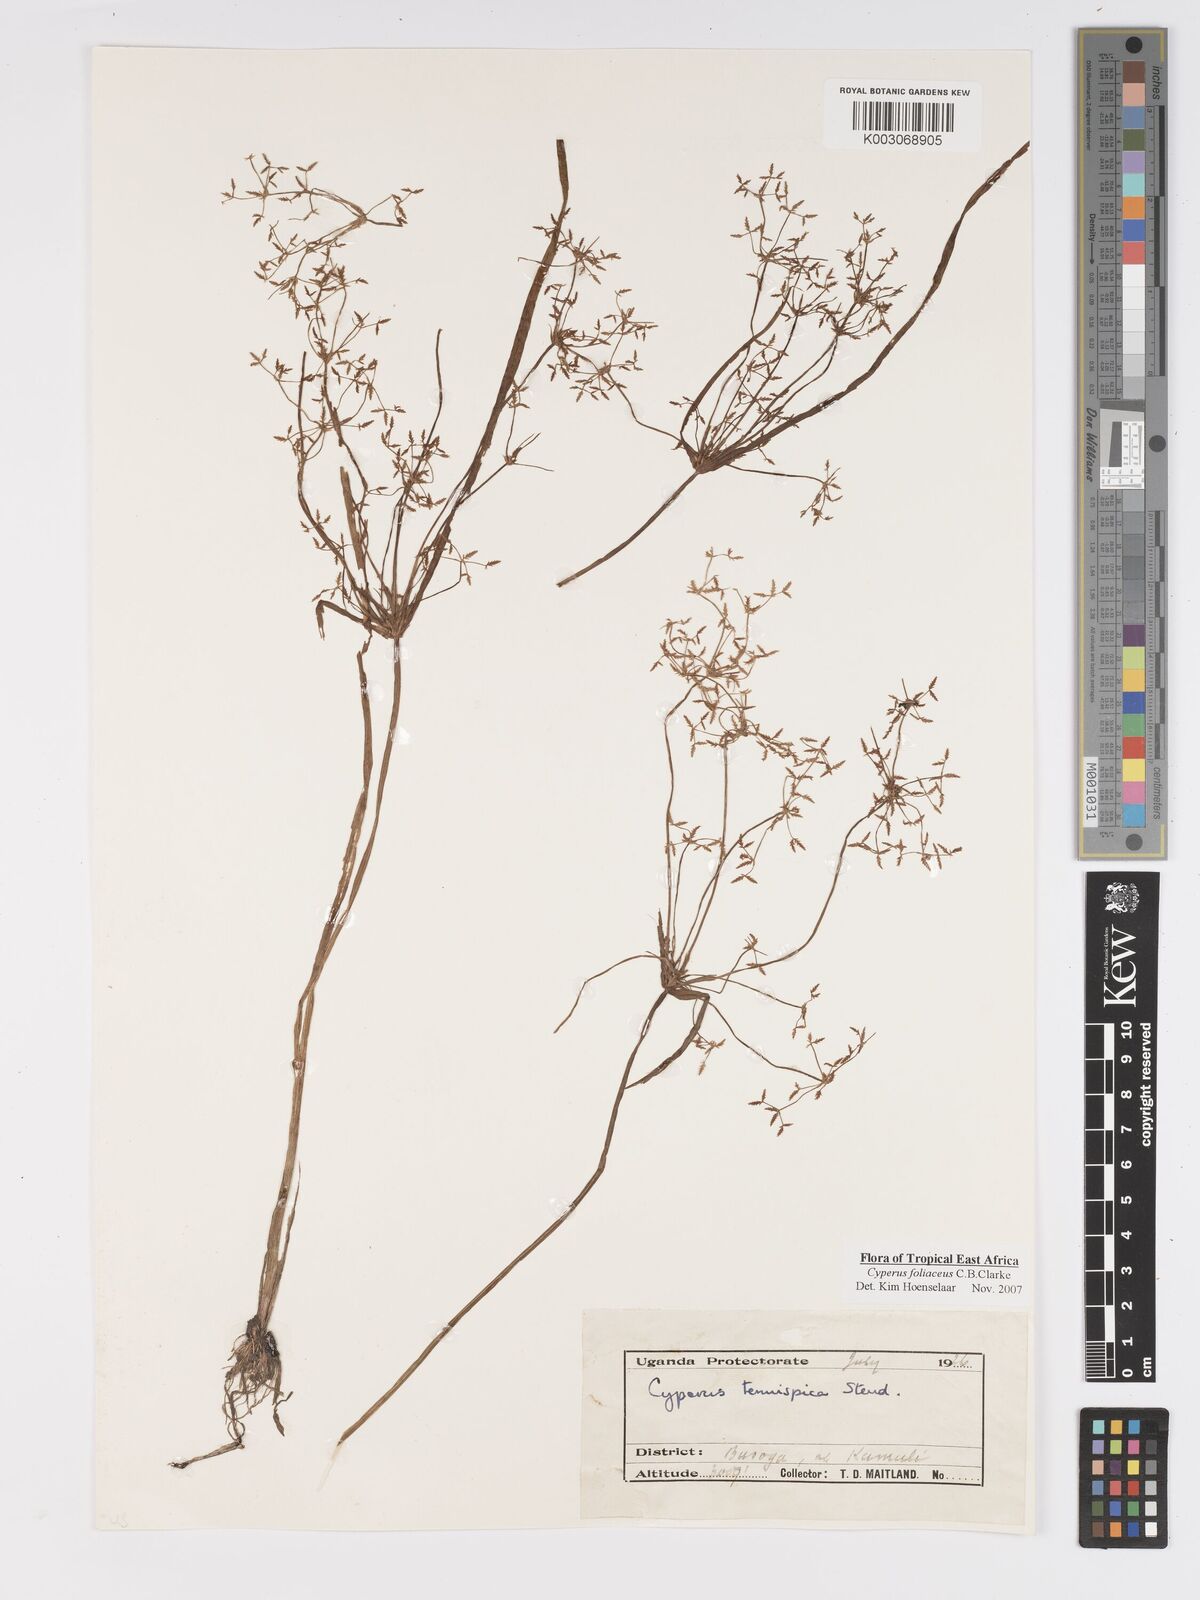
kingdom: Plantae
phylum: Tracheophyta
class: Liliopsida
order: Poales
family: Cyperaceae
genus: Cyperus
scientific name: Cyperus foliaceus
